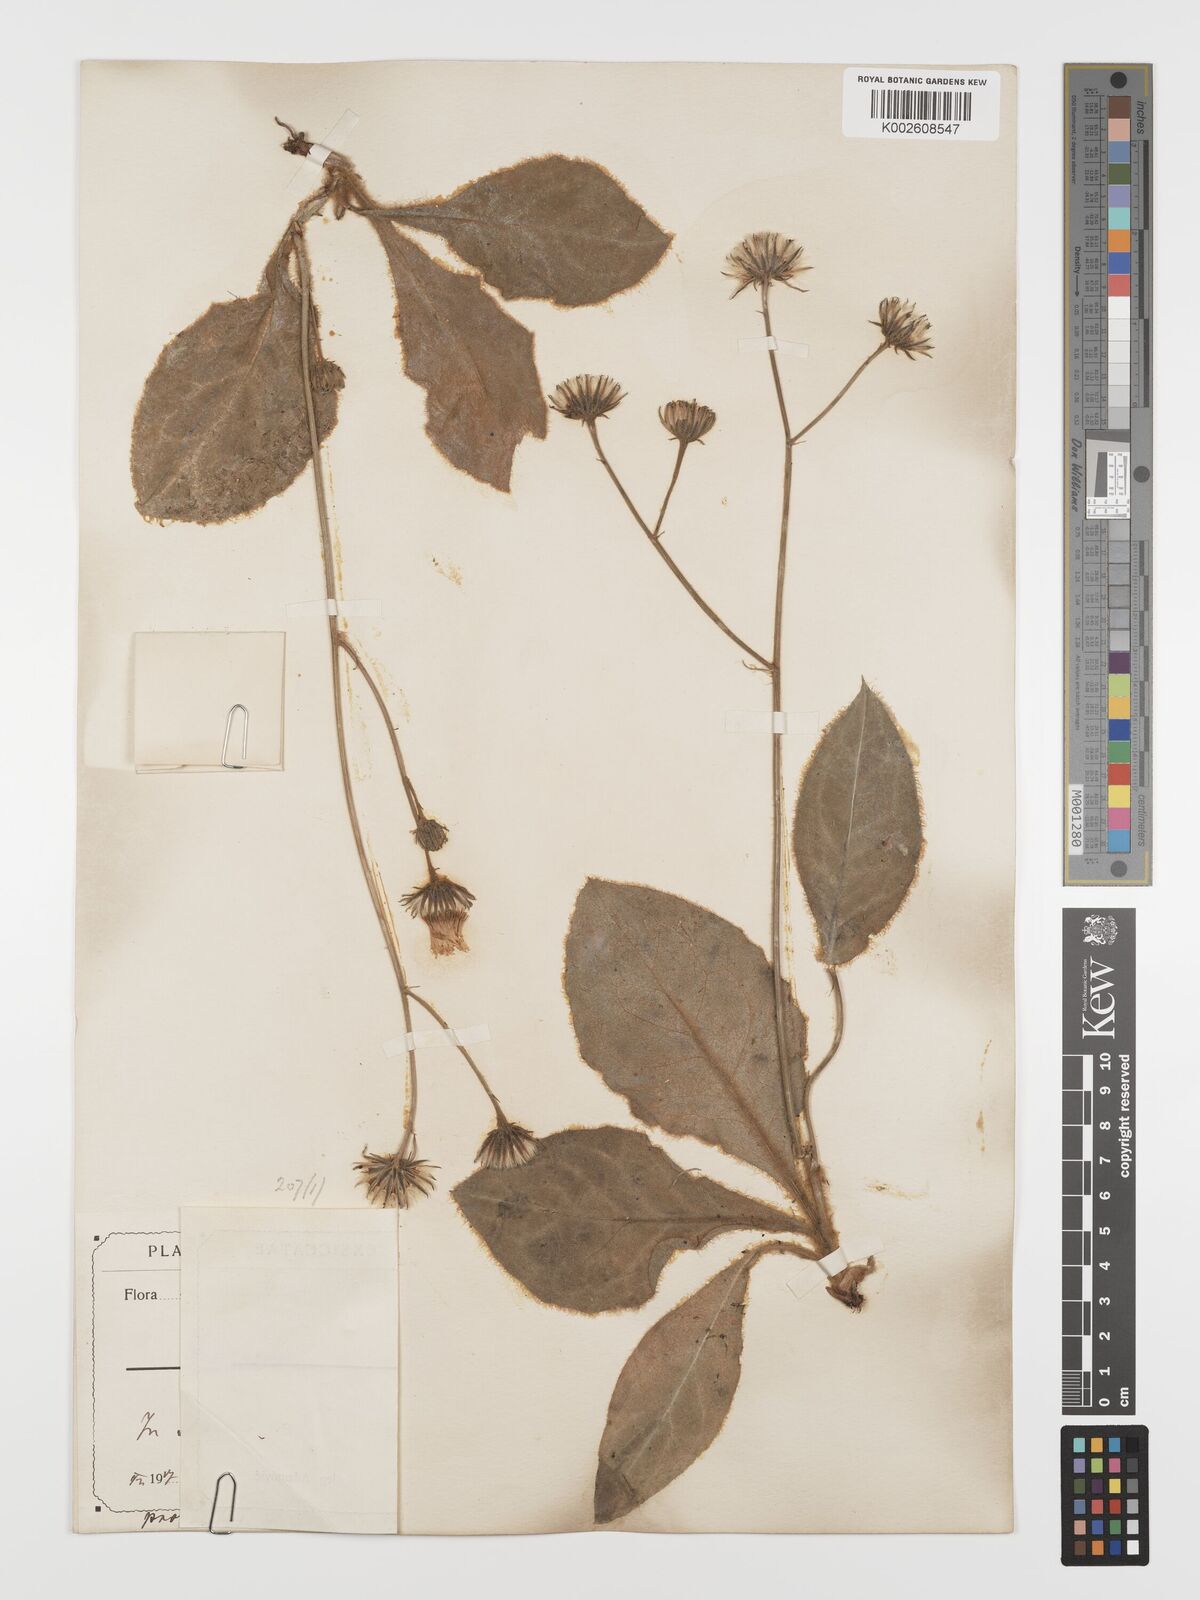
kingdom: Plantae
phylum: Tracheophyta
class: Magnoliopsida
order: Asterales
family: Asteraceae
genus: Hieracium
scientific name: Hieracium pannosum
